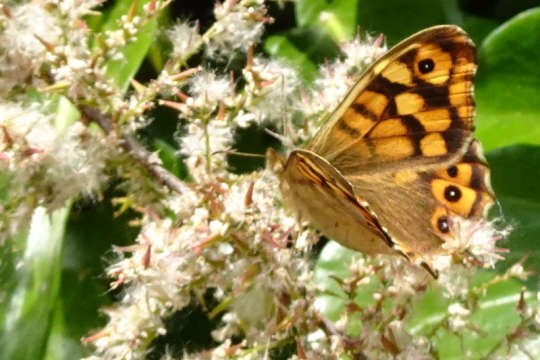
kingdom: Animalia
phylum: Arthropoda
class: Insecta
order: Lepidoptera
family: Nymphalidae
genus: Pararge
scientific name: Pararge aegeria
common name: Speckled Wood Butterfly
